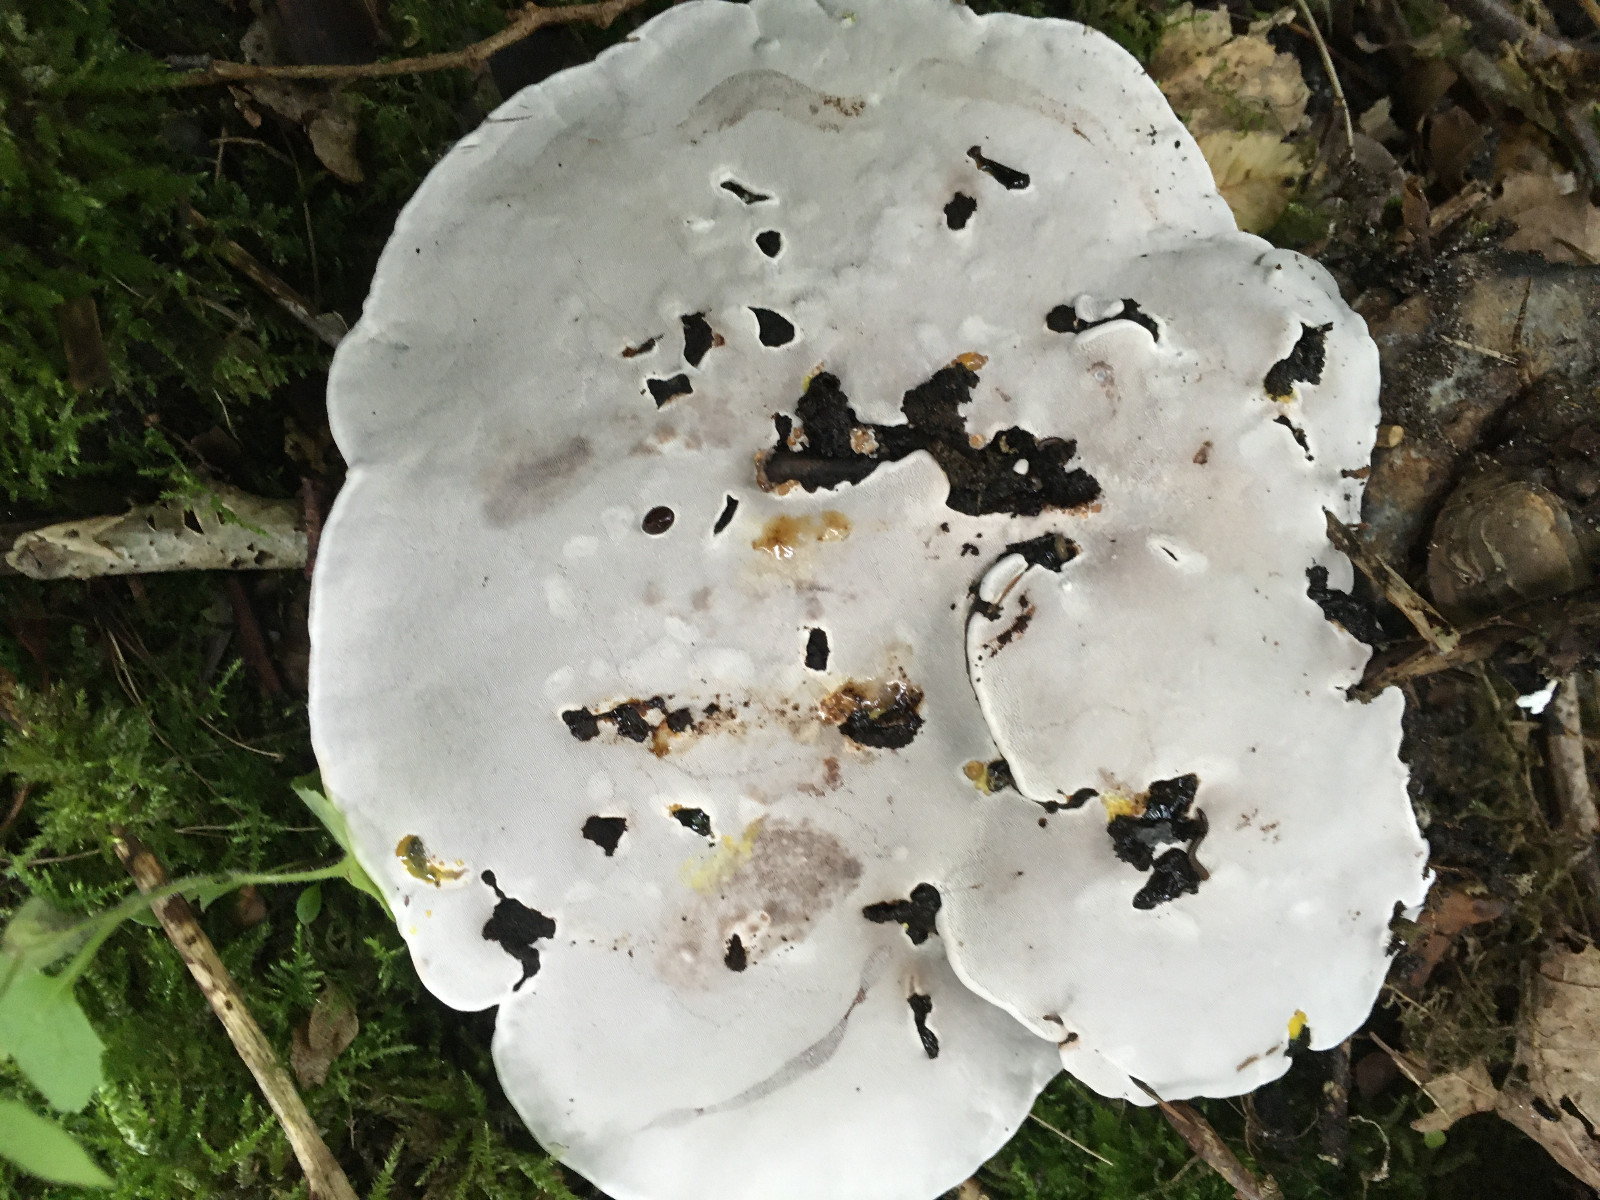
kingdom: Fungi
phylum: Basidiomycota
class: Agaricomycetes
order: Polyporales
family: Polyporaceae
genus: Ganoderma
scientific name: Ganoderma applanatum
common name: flad lakporesvamp
